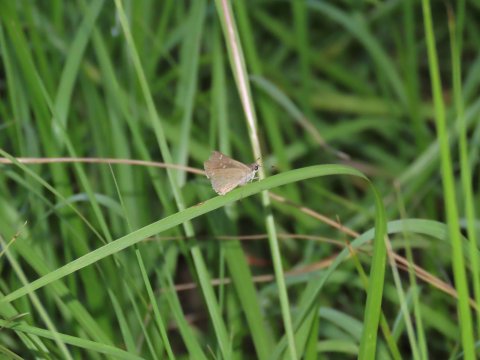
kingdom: Animalia
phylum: Arthropoda
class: Insecta
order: Lepidoptera
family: Hesperiidae
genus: Lerodea
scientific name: Lerodea eufala
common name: Eufala Skipper
